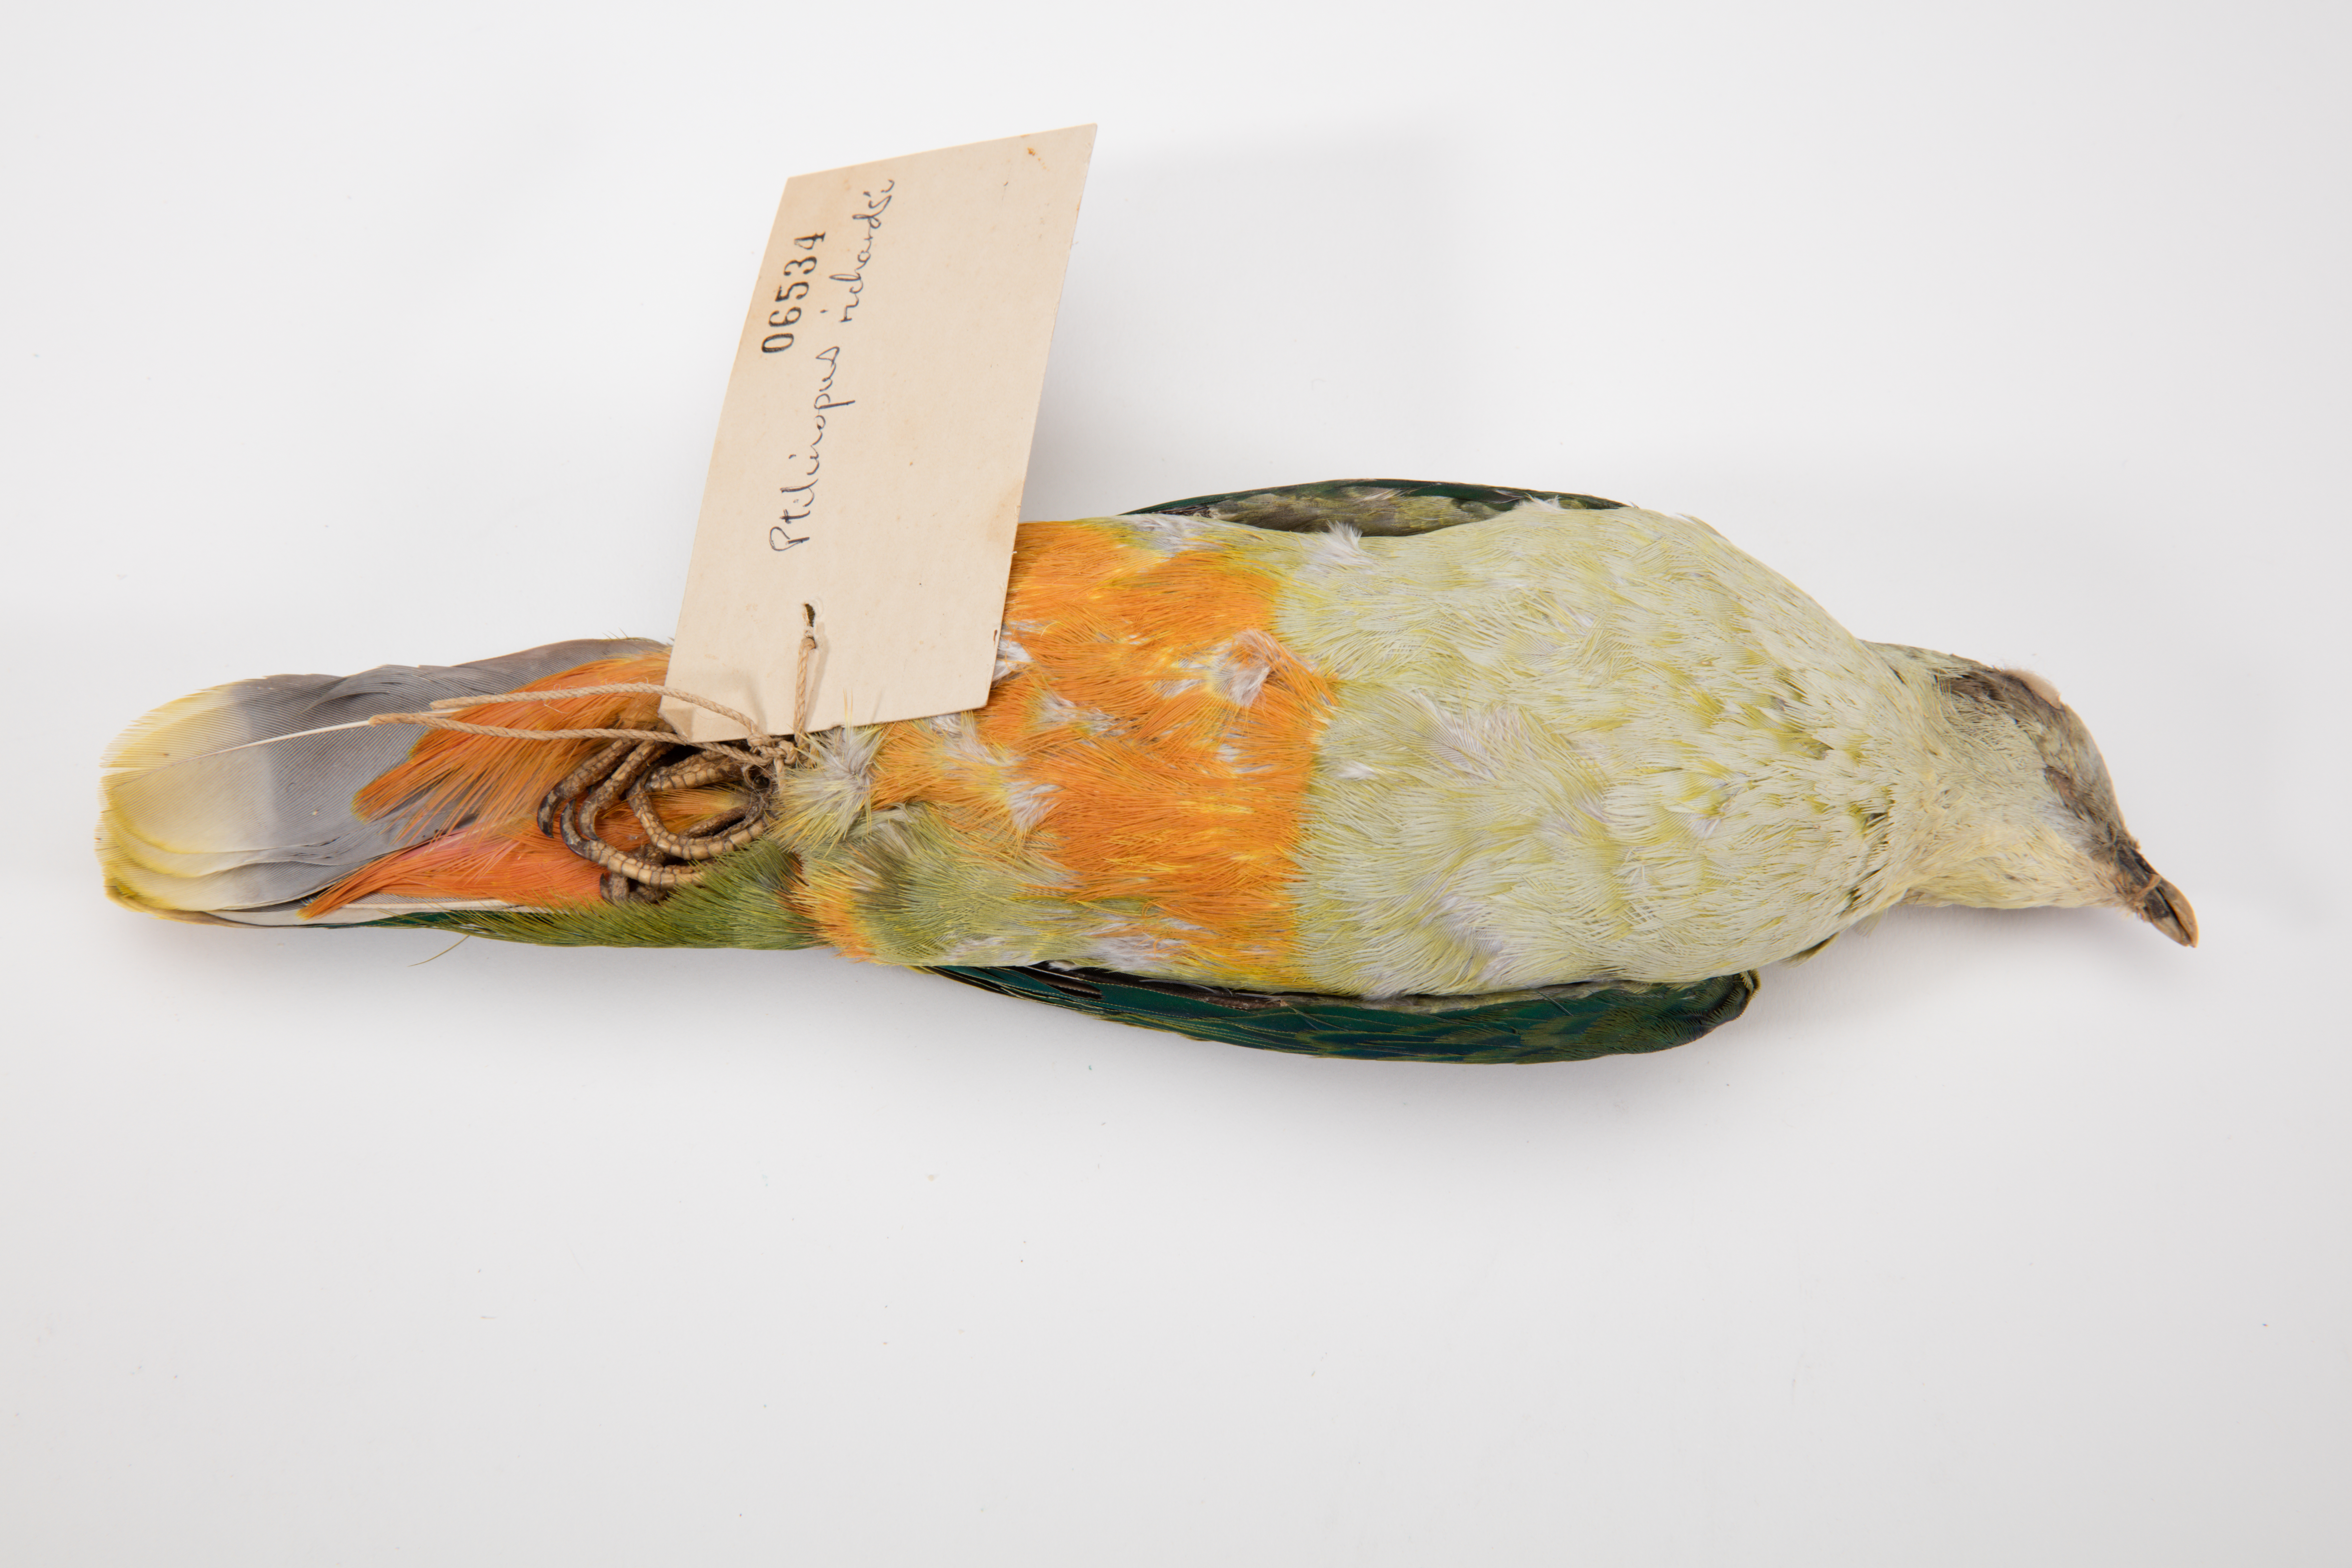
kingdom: Animalia
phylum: Chordata
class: Aves
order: Columbiformes
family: Columbidae
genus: Ptilinopus
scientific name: Ptilinopus richardsii
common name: Silver-capped fruit dove
